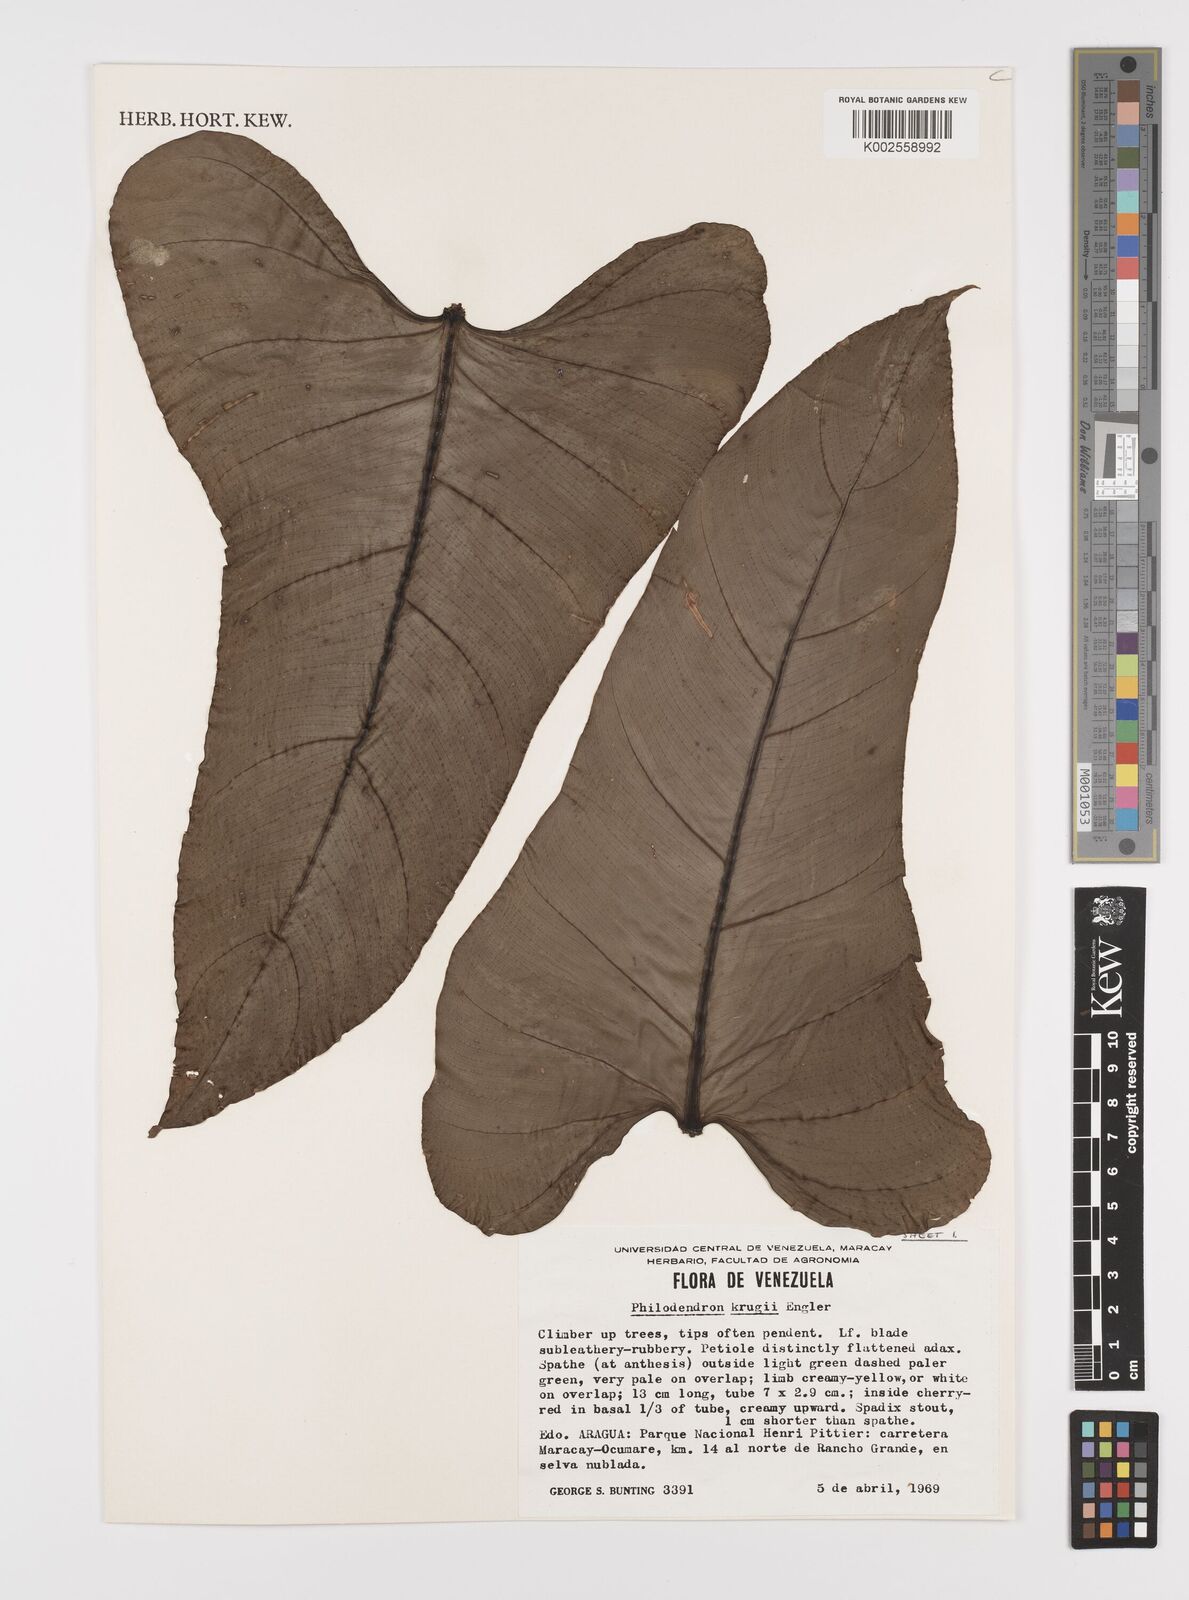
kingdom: Plantae
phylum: Tracheophyta
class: Liliopsida
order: Alismatales
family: Araceae
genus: Philodendron
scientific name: Philodendron krugii
